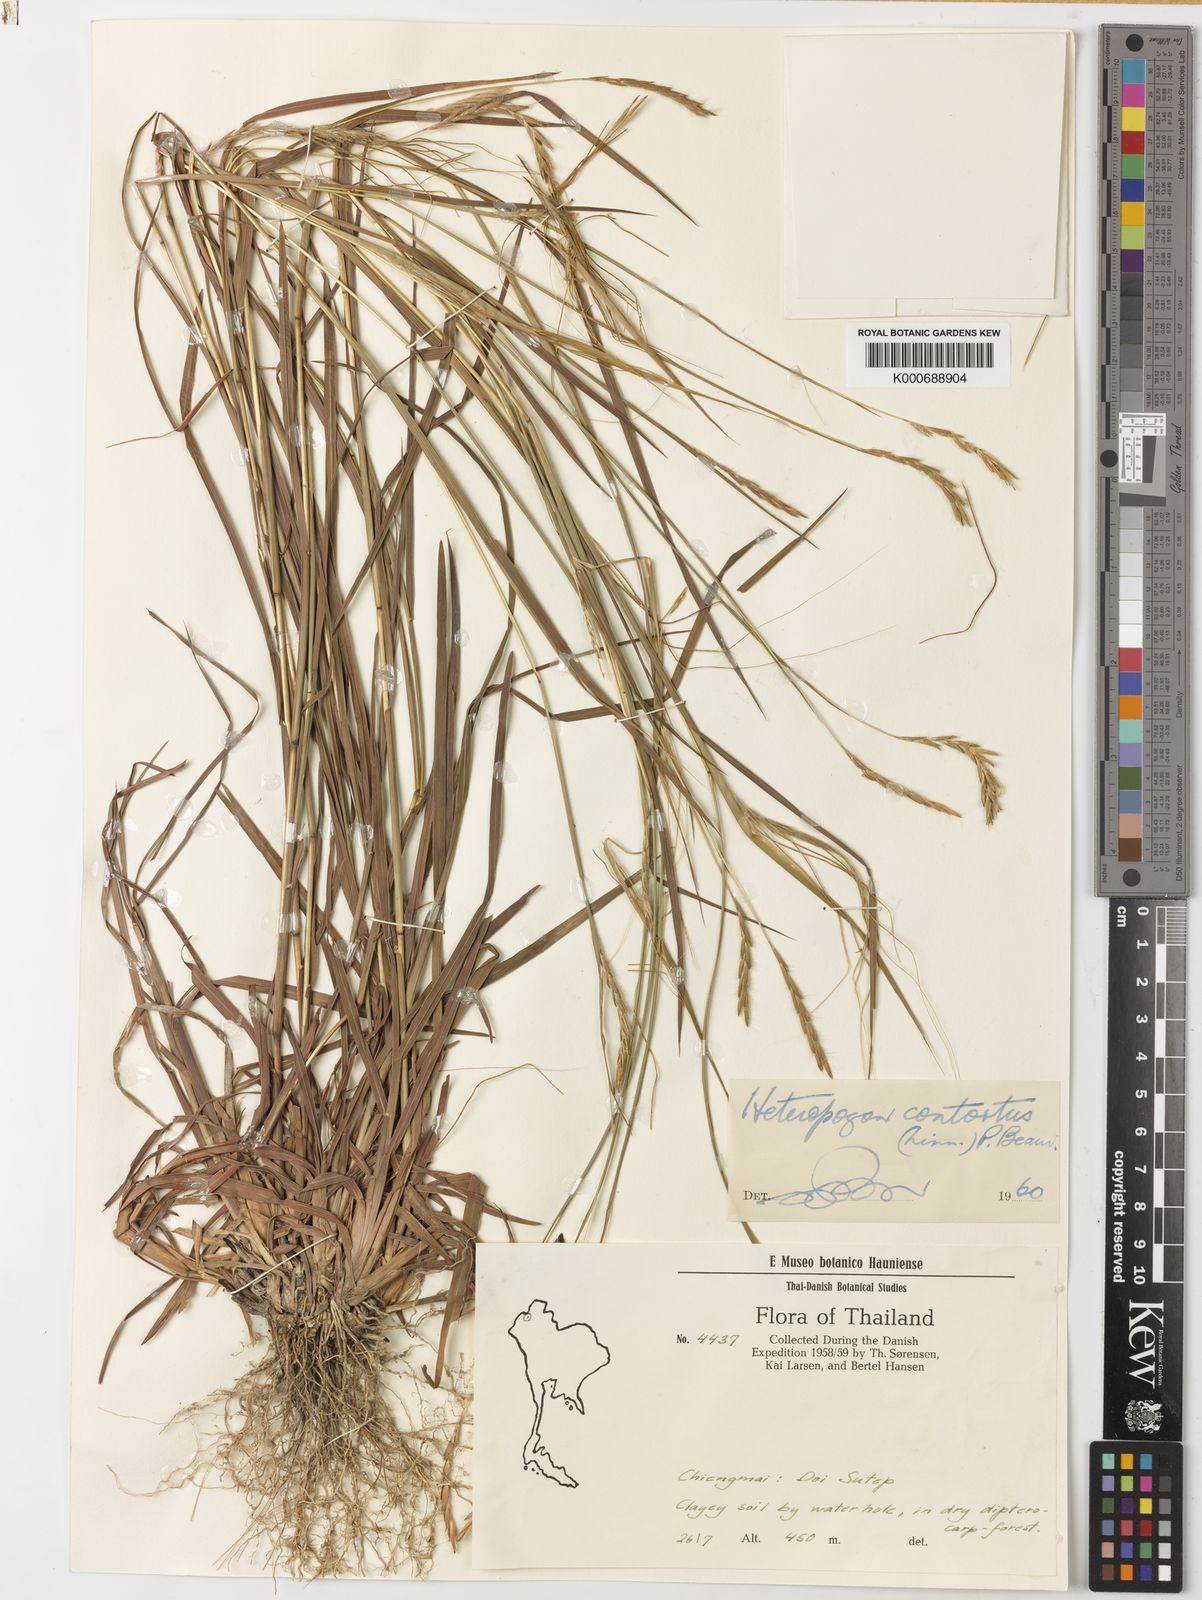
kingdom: Plantae
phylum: Tracheophyta
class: Liliopsida
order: Poales
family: Poaceae
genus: Heteropogon
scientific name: Heteropogon contortus
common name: Tanglehead
